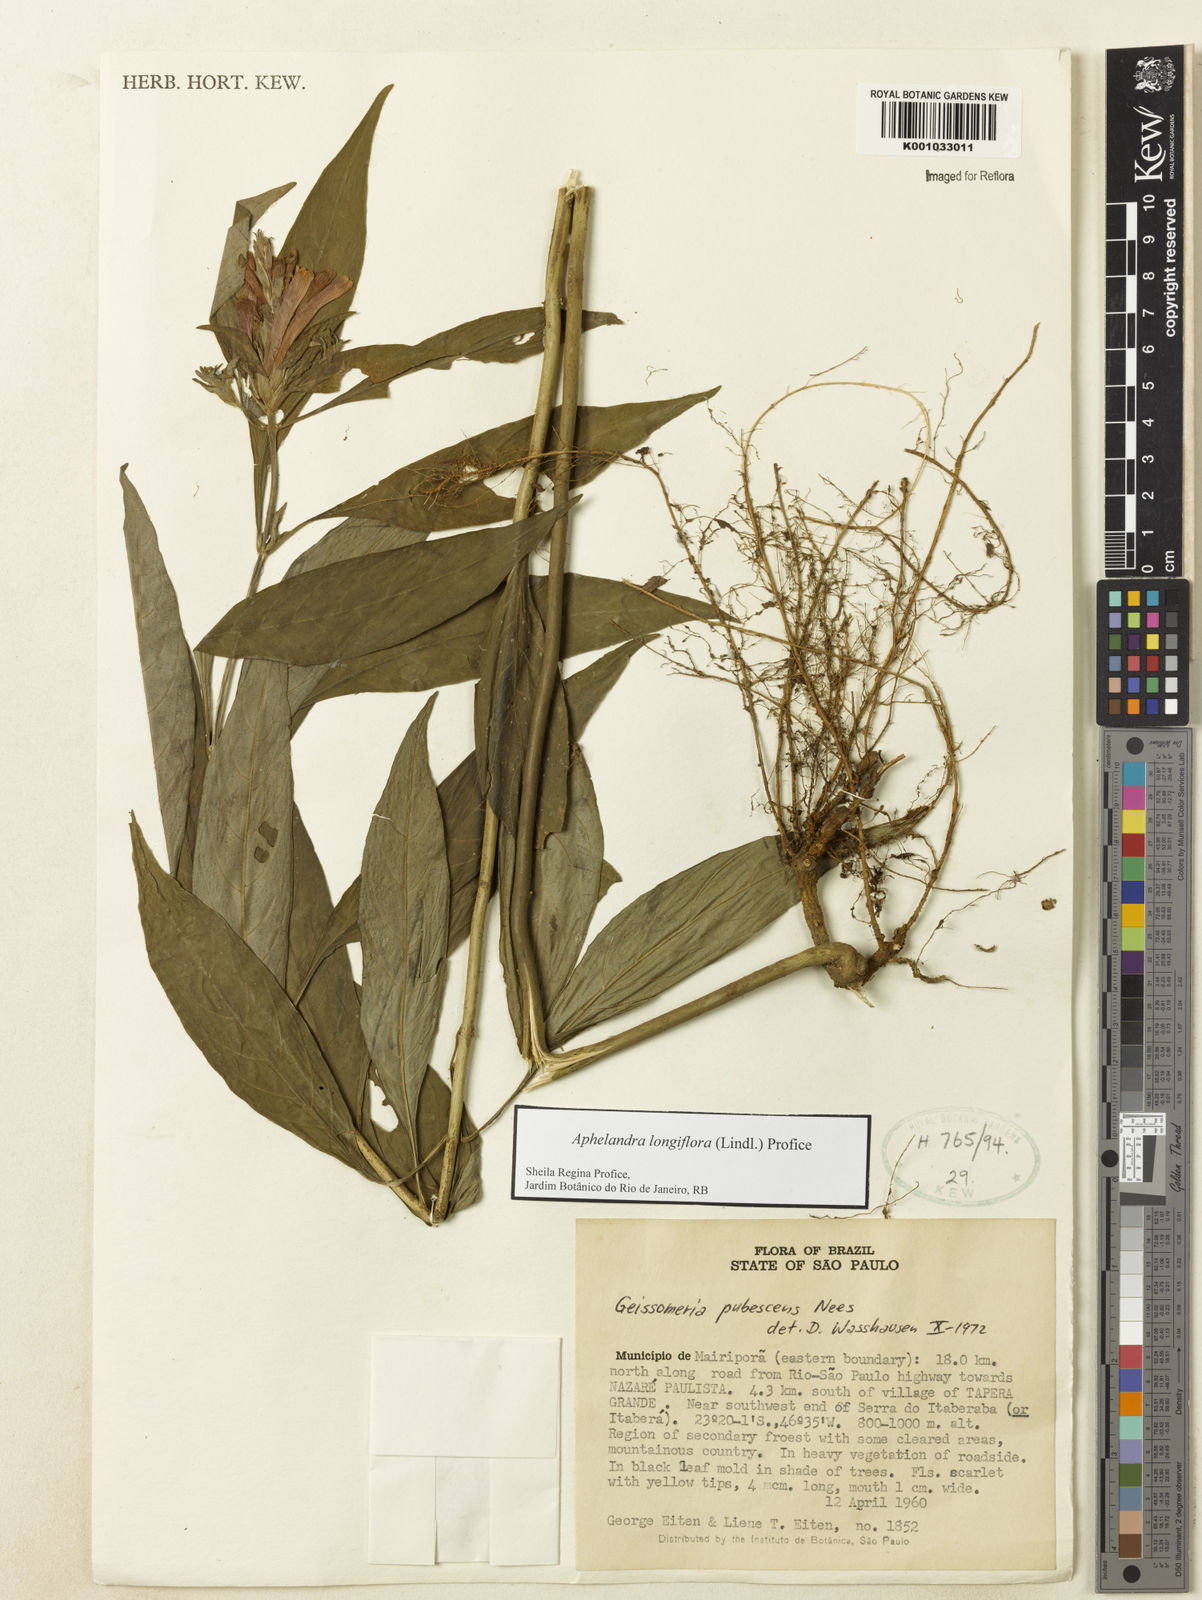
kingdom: Plantae
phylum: Tracheophyta
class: Magnoliopsida
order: Lamiales
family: Acanthaceae
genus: Aphelandra
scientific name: Aphelandra longiflora
